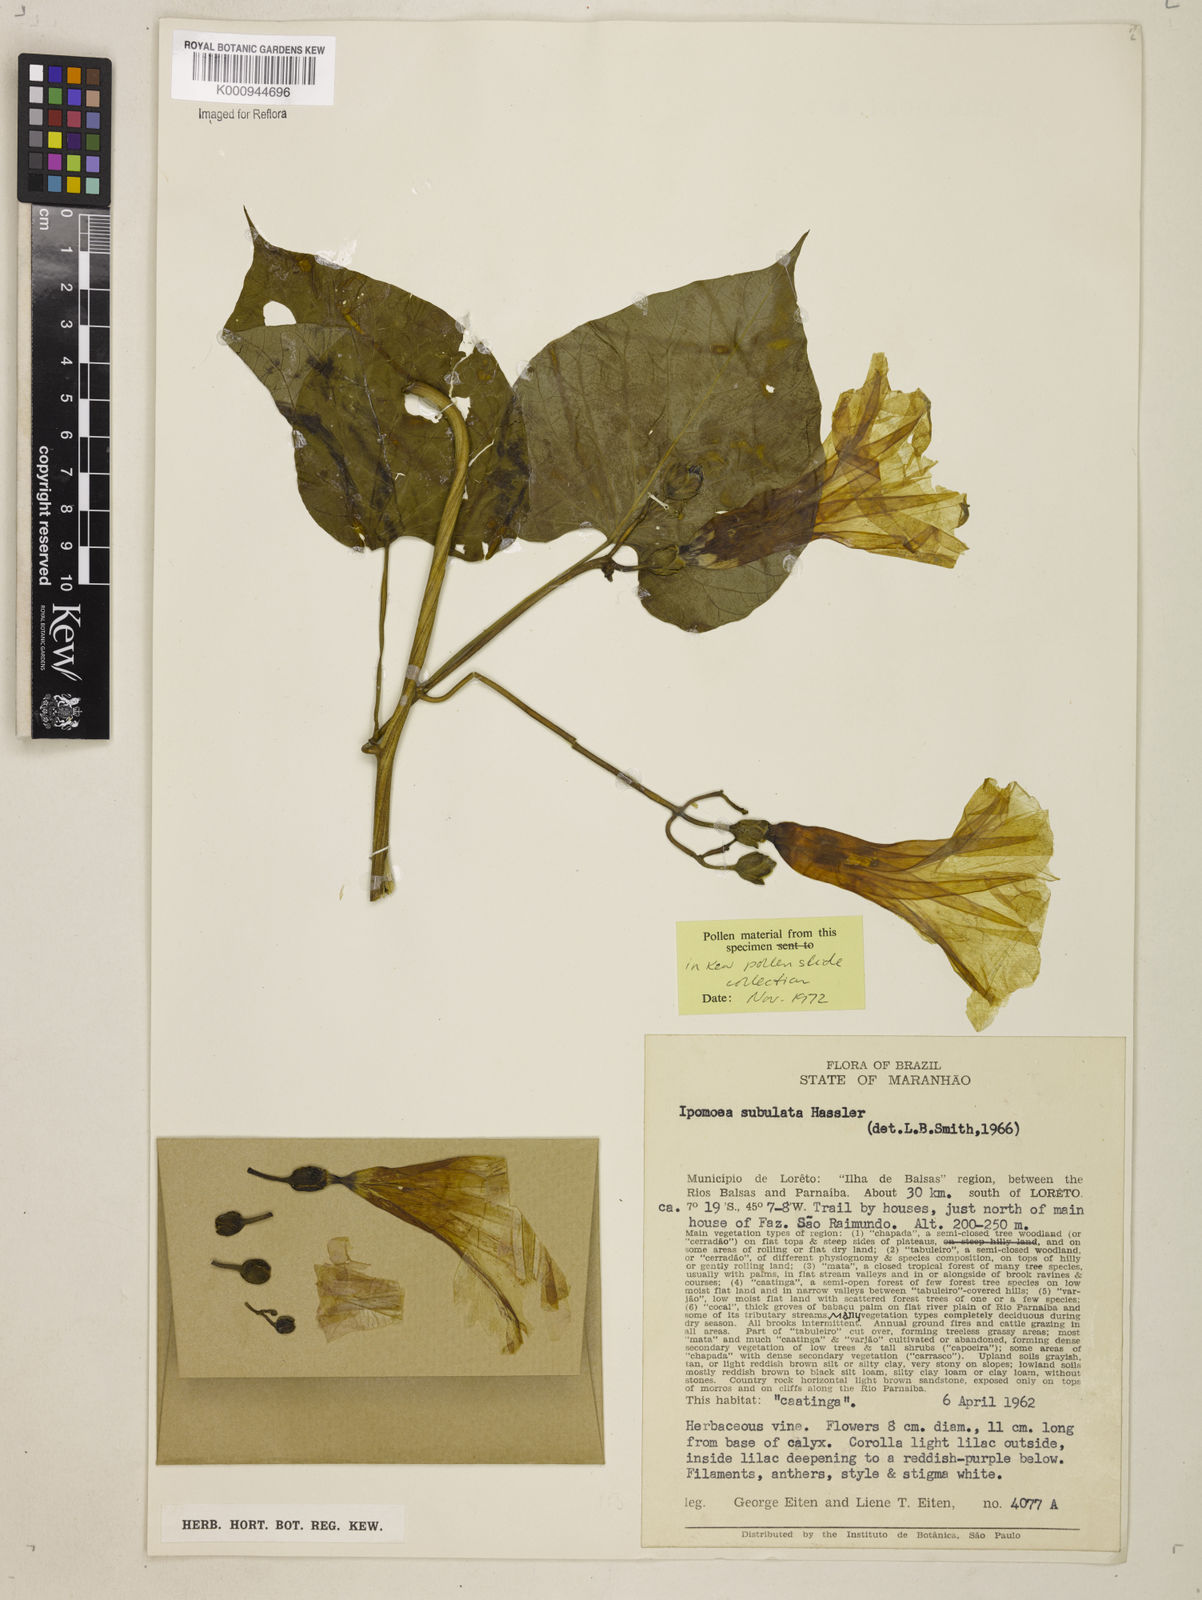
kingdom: Plantae
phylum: Tracheophyta
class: Magnoliopsida
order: Solanales
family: Convolvulaceae
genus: Ipomoea
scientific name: Ipomoea
